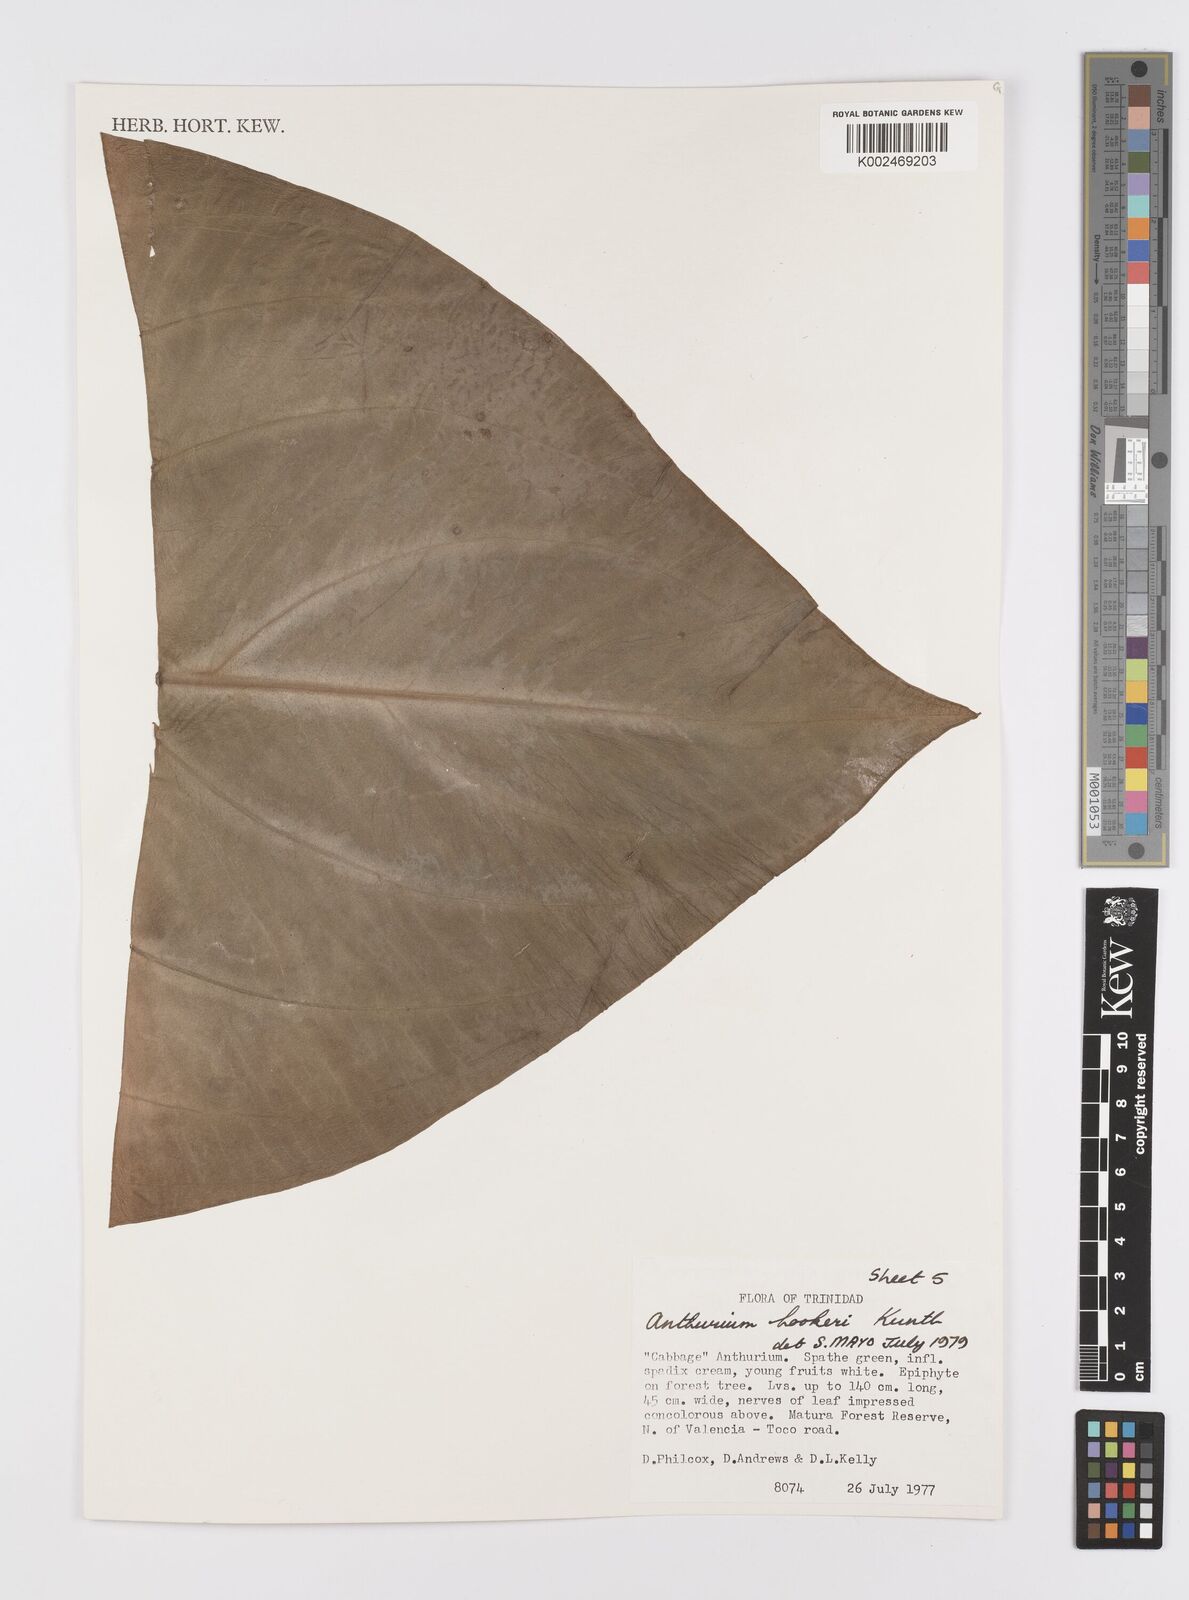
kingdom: Plantae
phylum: Tracheophyta
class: Liliopsida
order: Alismatales
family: Araceae
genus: Anthurium
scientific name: Anthurium hookeri
